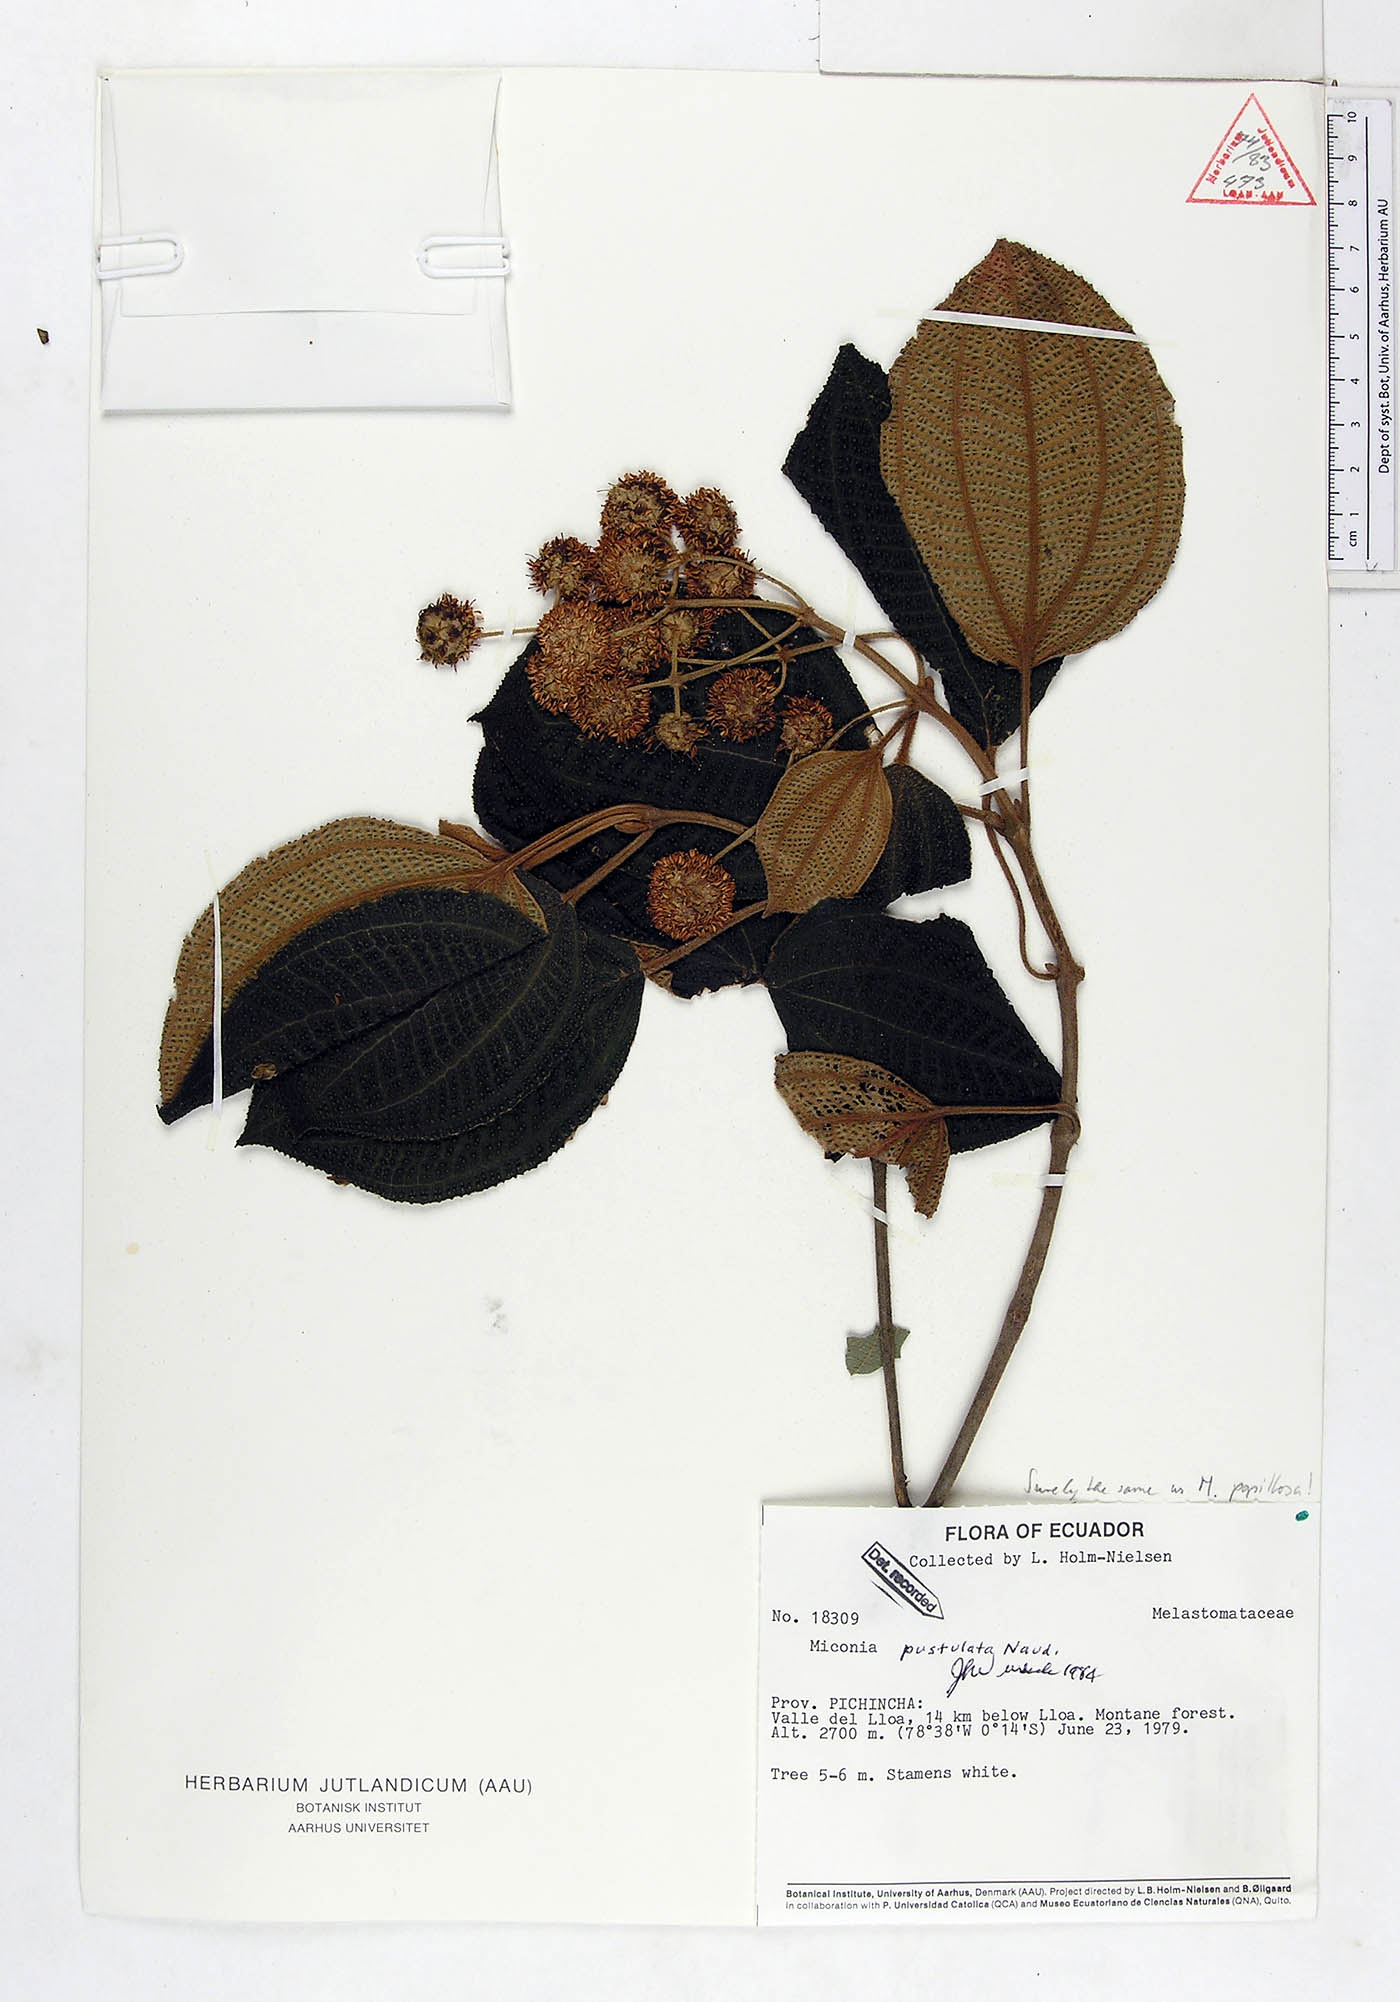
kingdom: Plantae
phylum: Tracheophyta
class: Magnoliopsida
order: Myrtales
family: Melastomataceae
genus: Miconia
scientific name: Miconia pustulata
